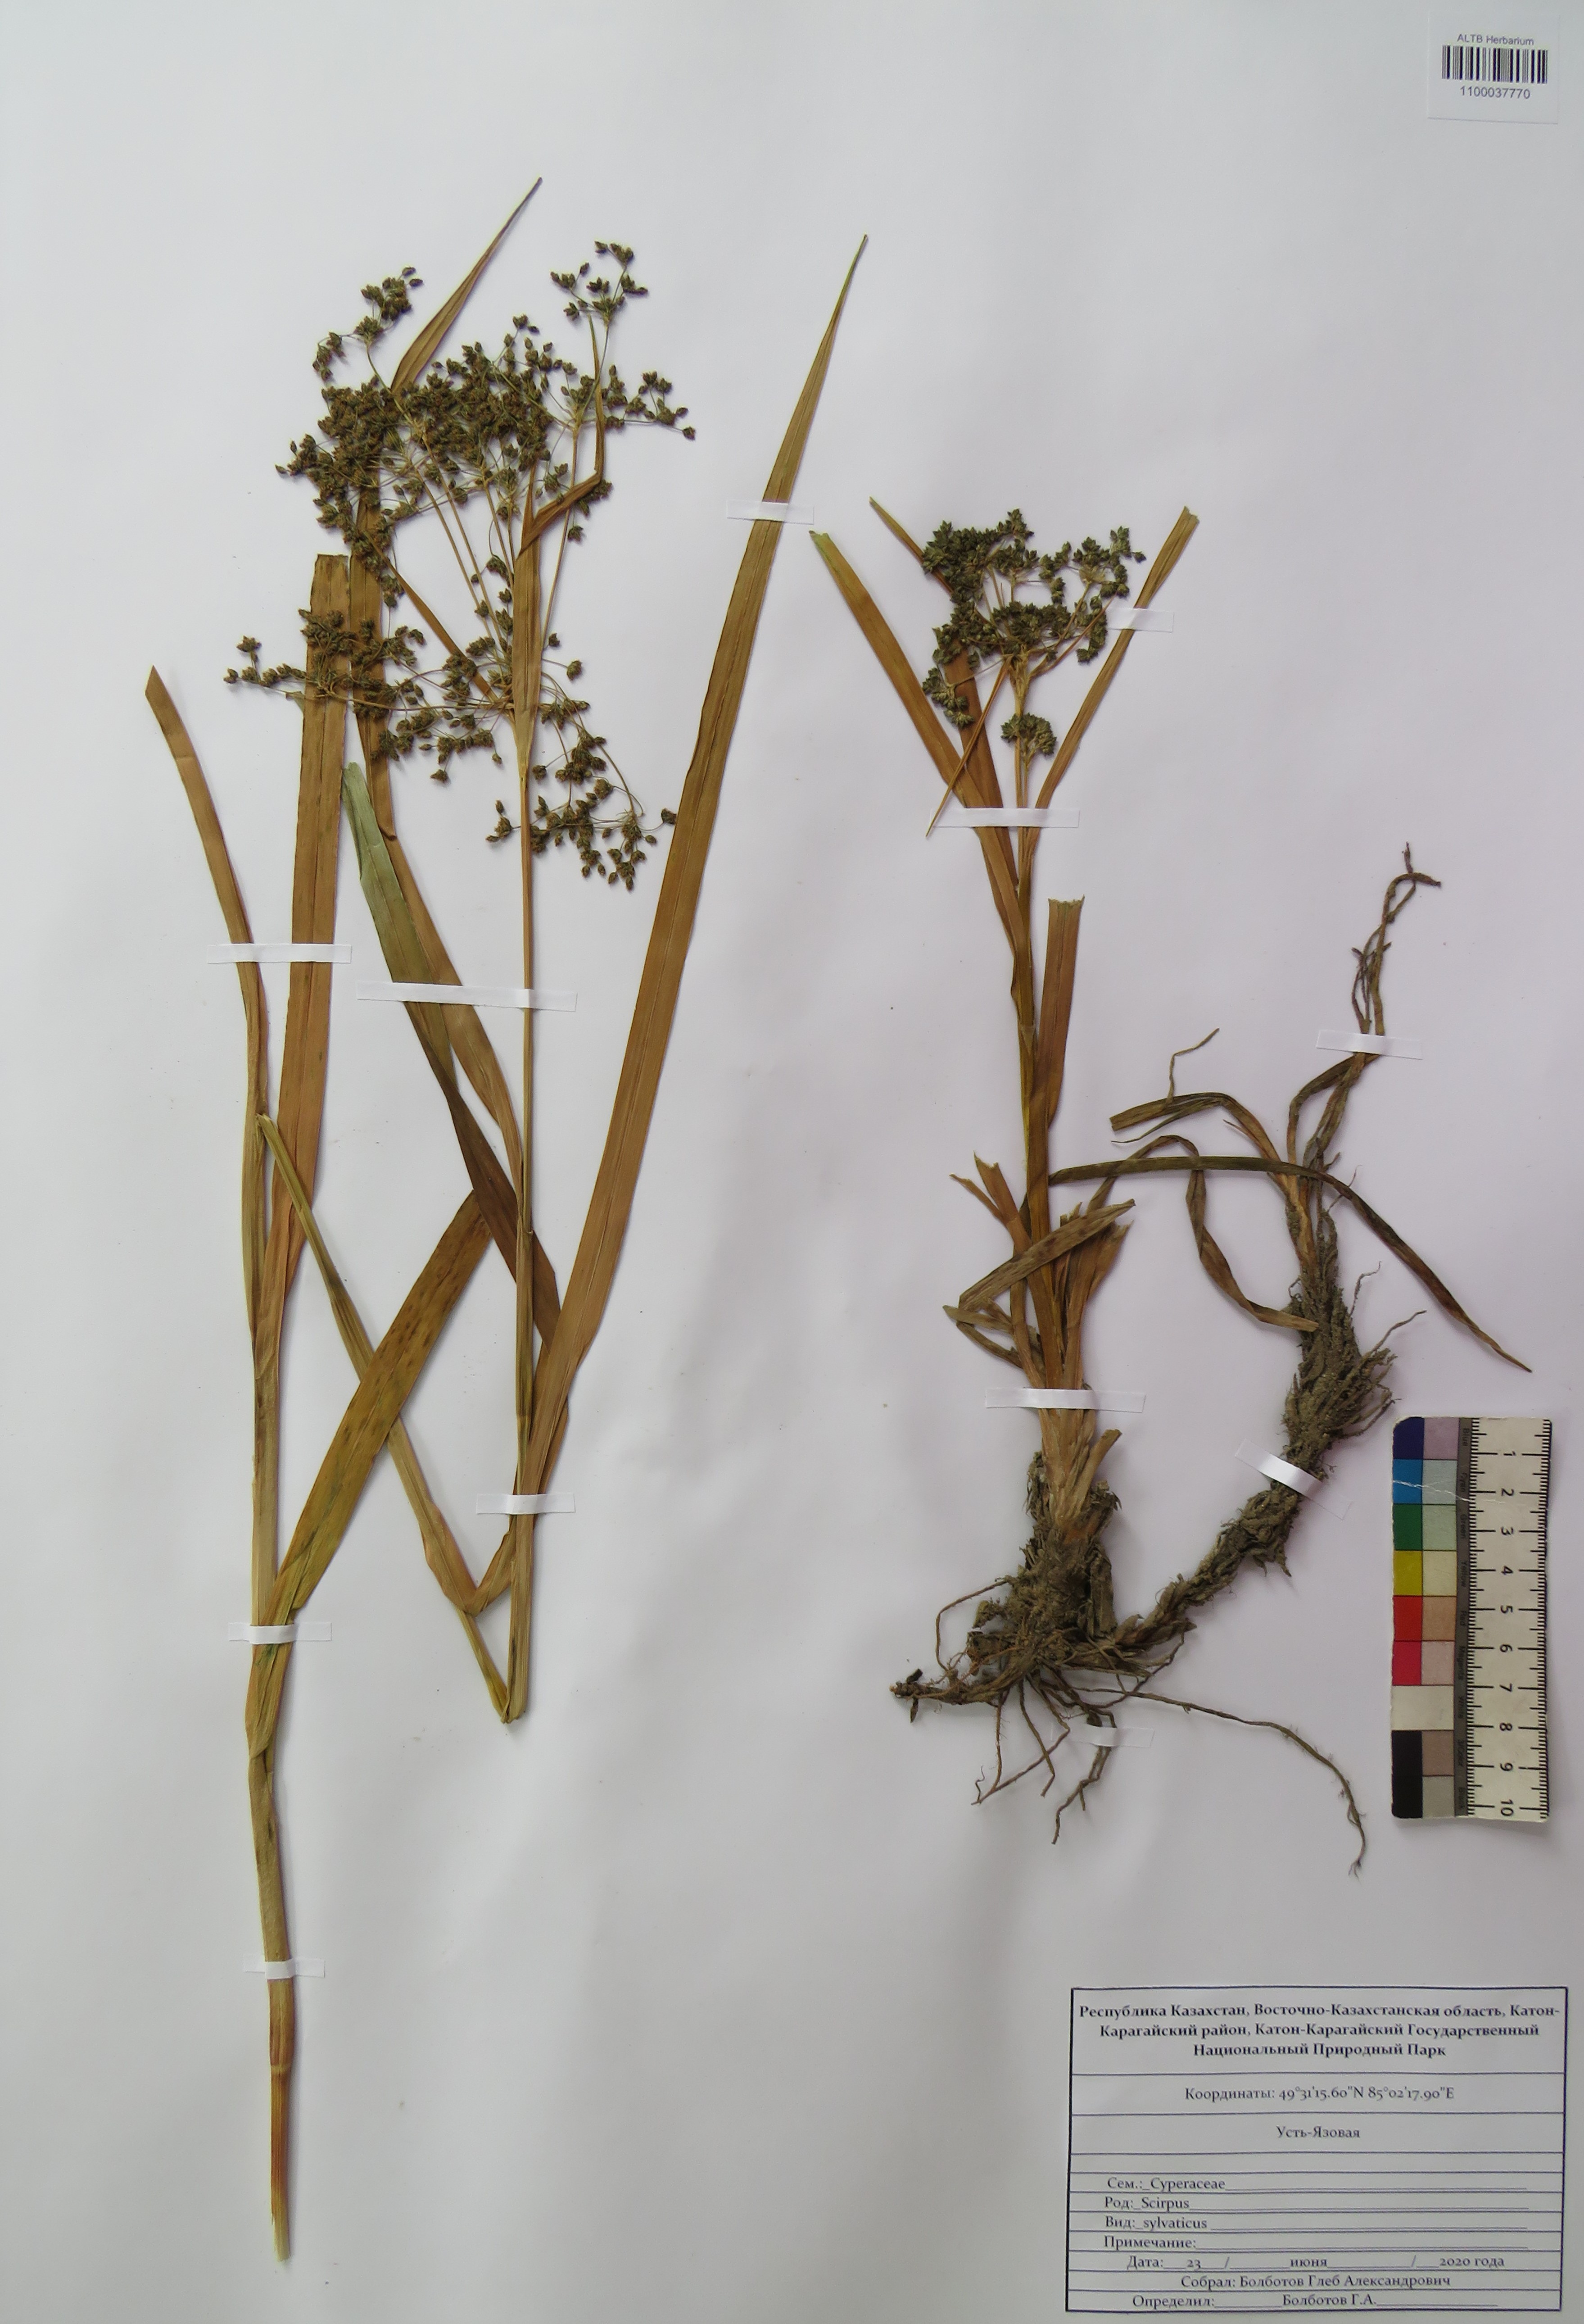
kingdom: Plantae
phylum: Tracheophyta
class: Liliopsida
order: Poales
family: Cyperaceae
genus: Scirpus
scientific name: Scirpus sylvaticus
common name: Wood club-rush
